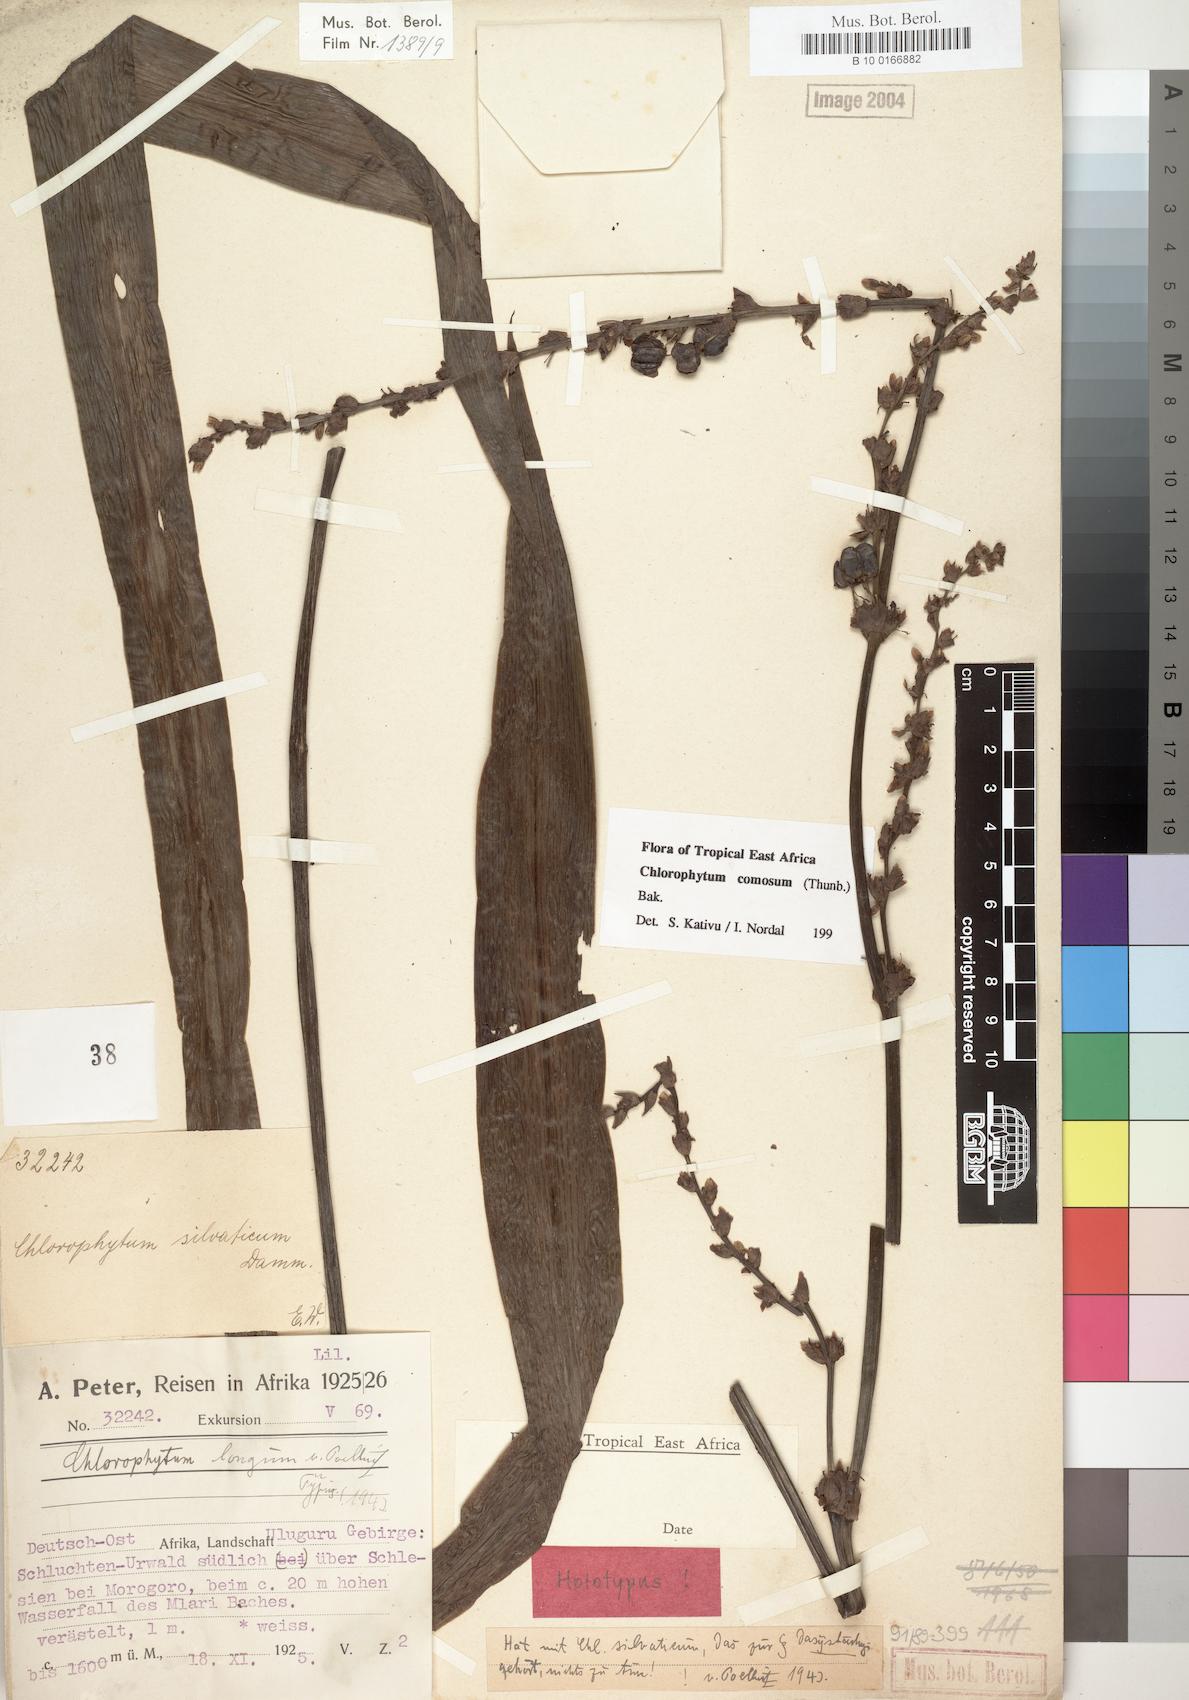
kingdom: Plantae
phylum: Tracheophyta
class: Liliopsida
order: Asparagales
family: Asparagaceae
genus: Chlorophytum
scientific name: Chlorophytum comosum
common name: Spider plant
